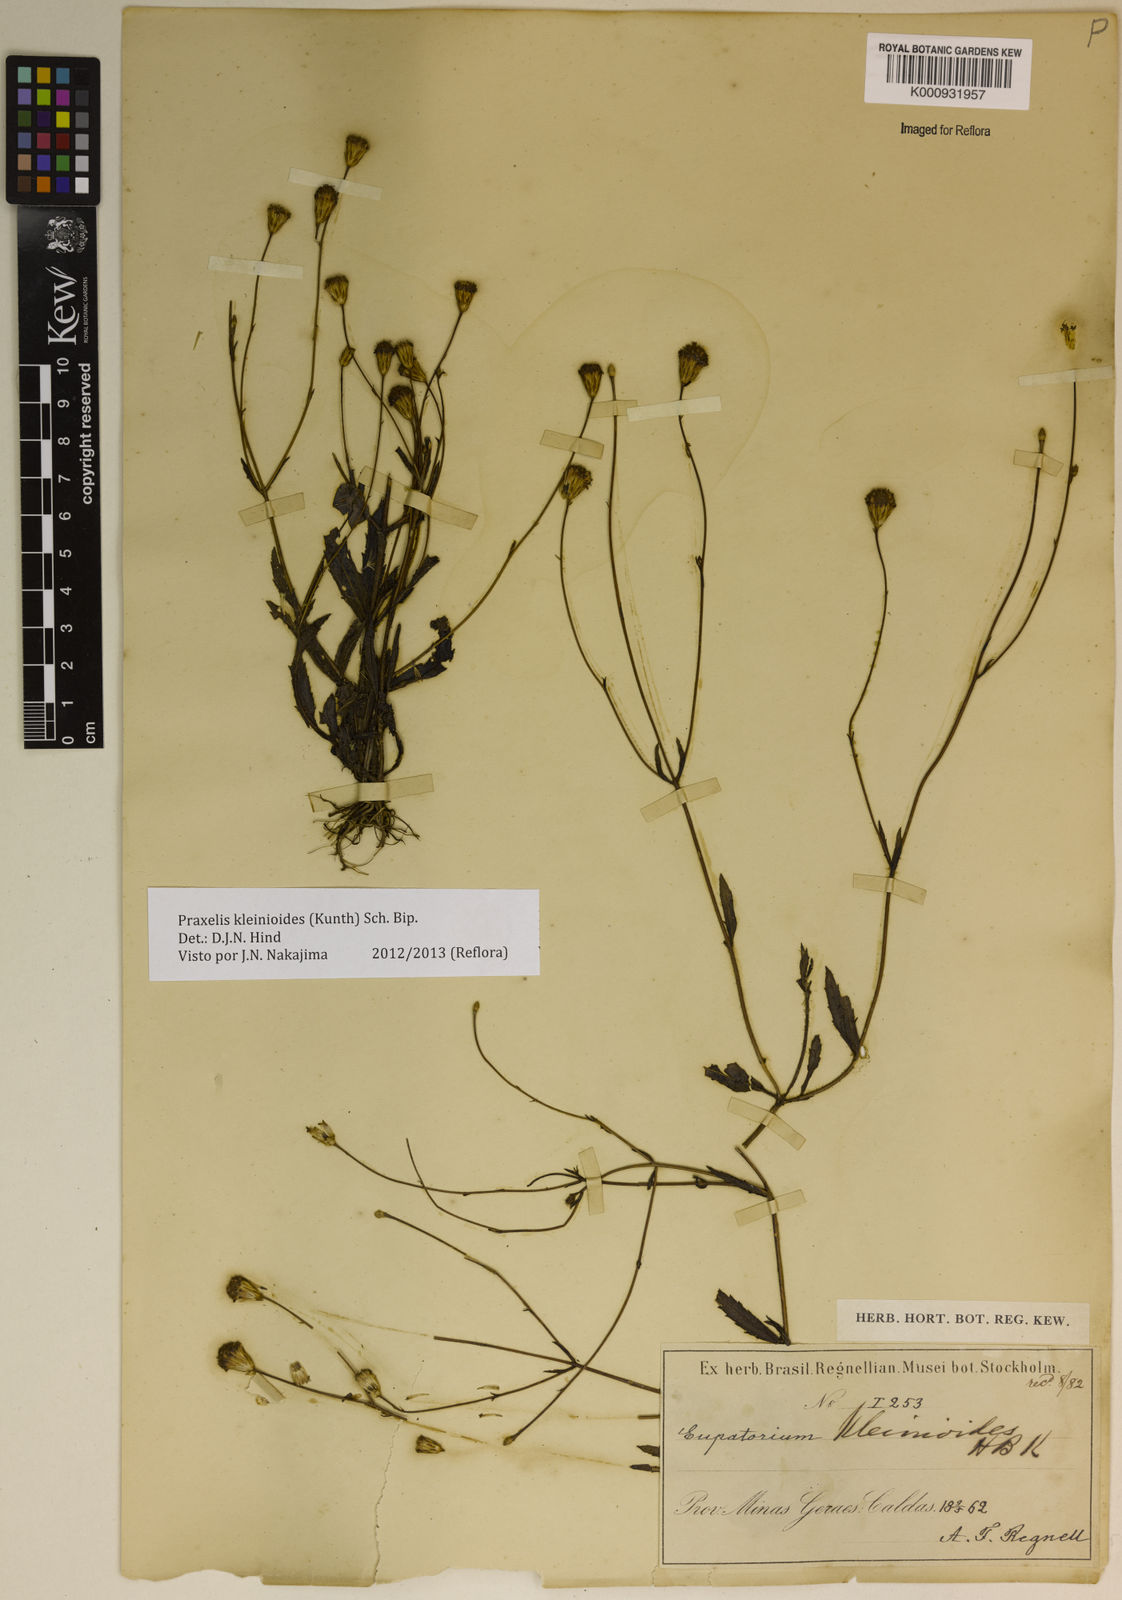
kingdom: Plantae
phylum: Tracheophyta
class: Magnoliopsida
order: Asterales
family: Asteraceae
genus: Praxelis
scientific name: Praxelis kleinioides
